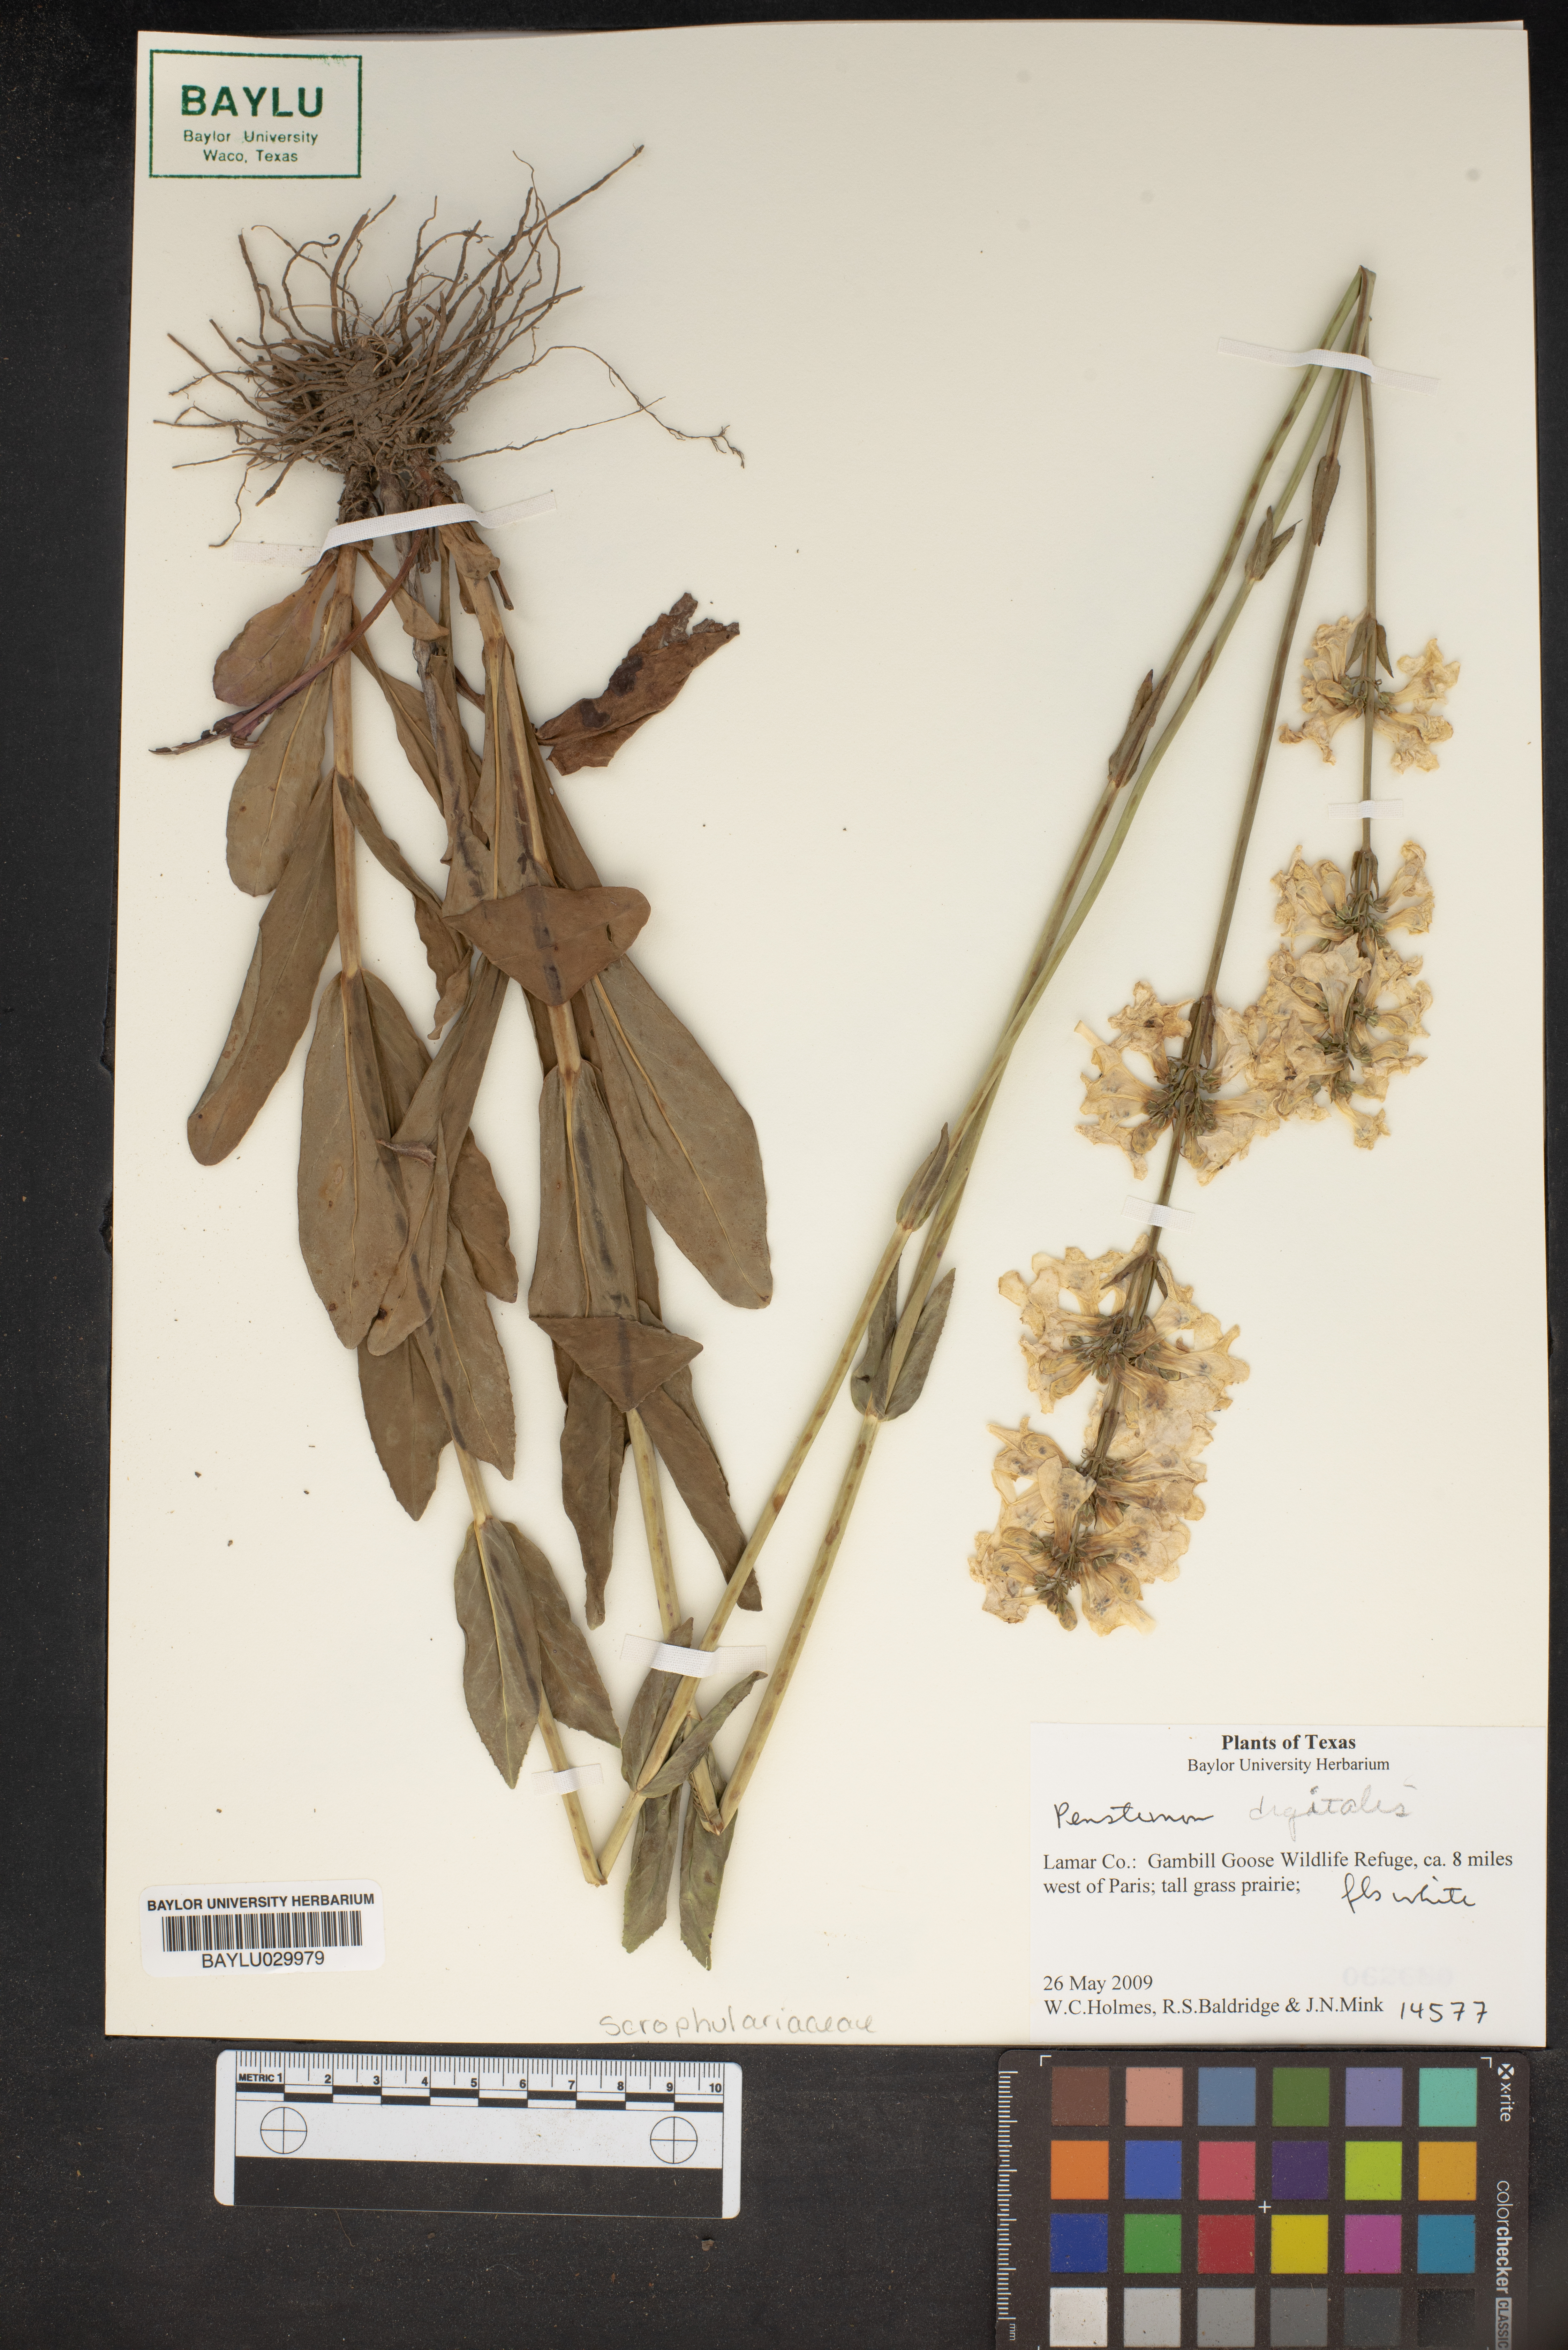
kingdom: Plantae
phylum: Tracheophyta
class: Magnoliopsida
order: Lamiales
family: Plantaginaceae
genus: Penstemon
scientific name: Penstemon digitalis
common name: Foxglove beardtongue
